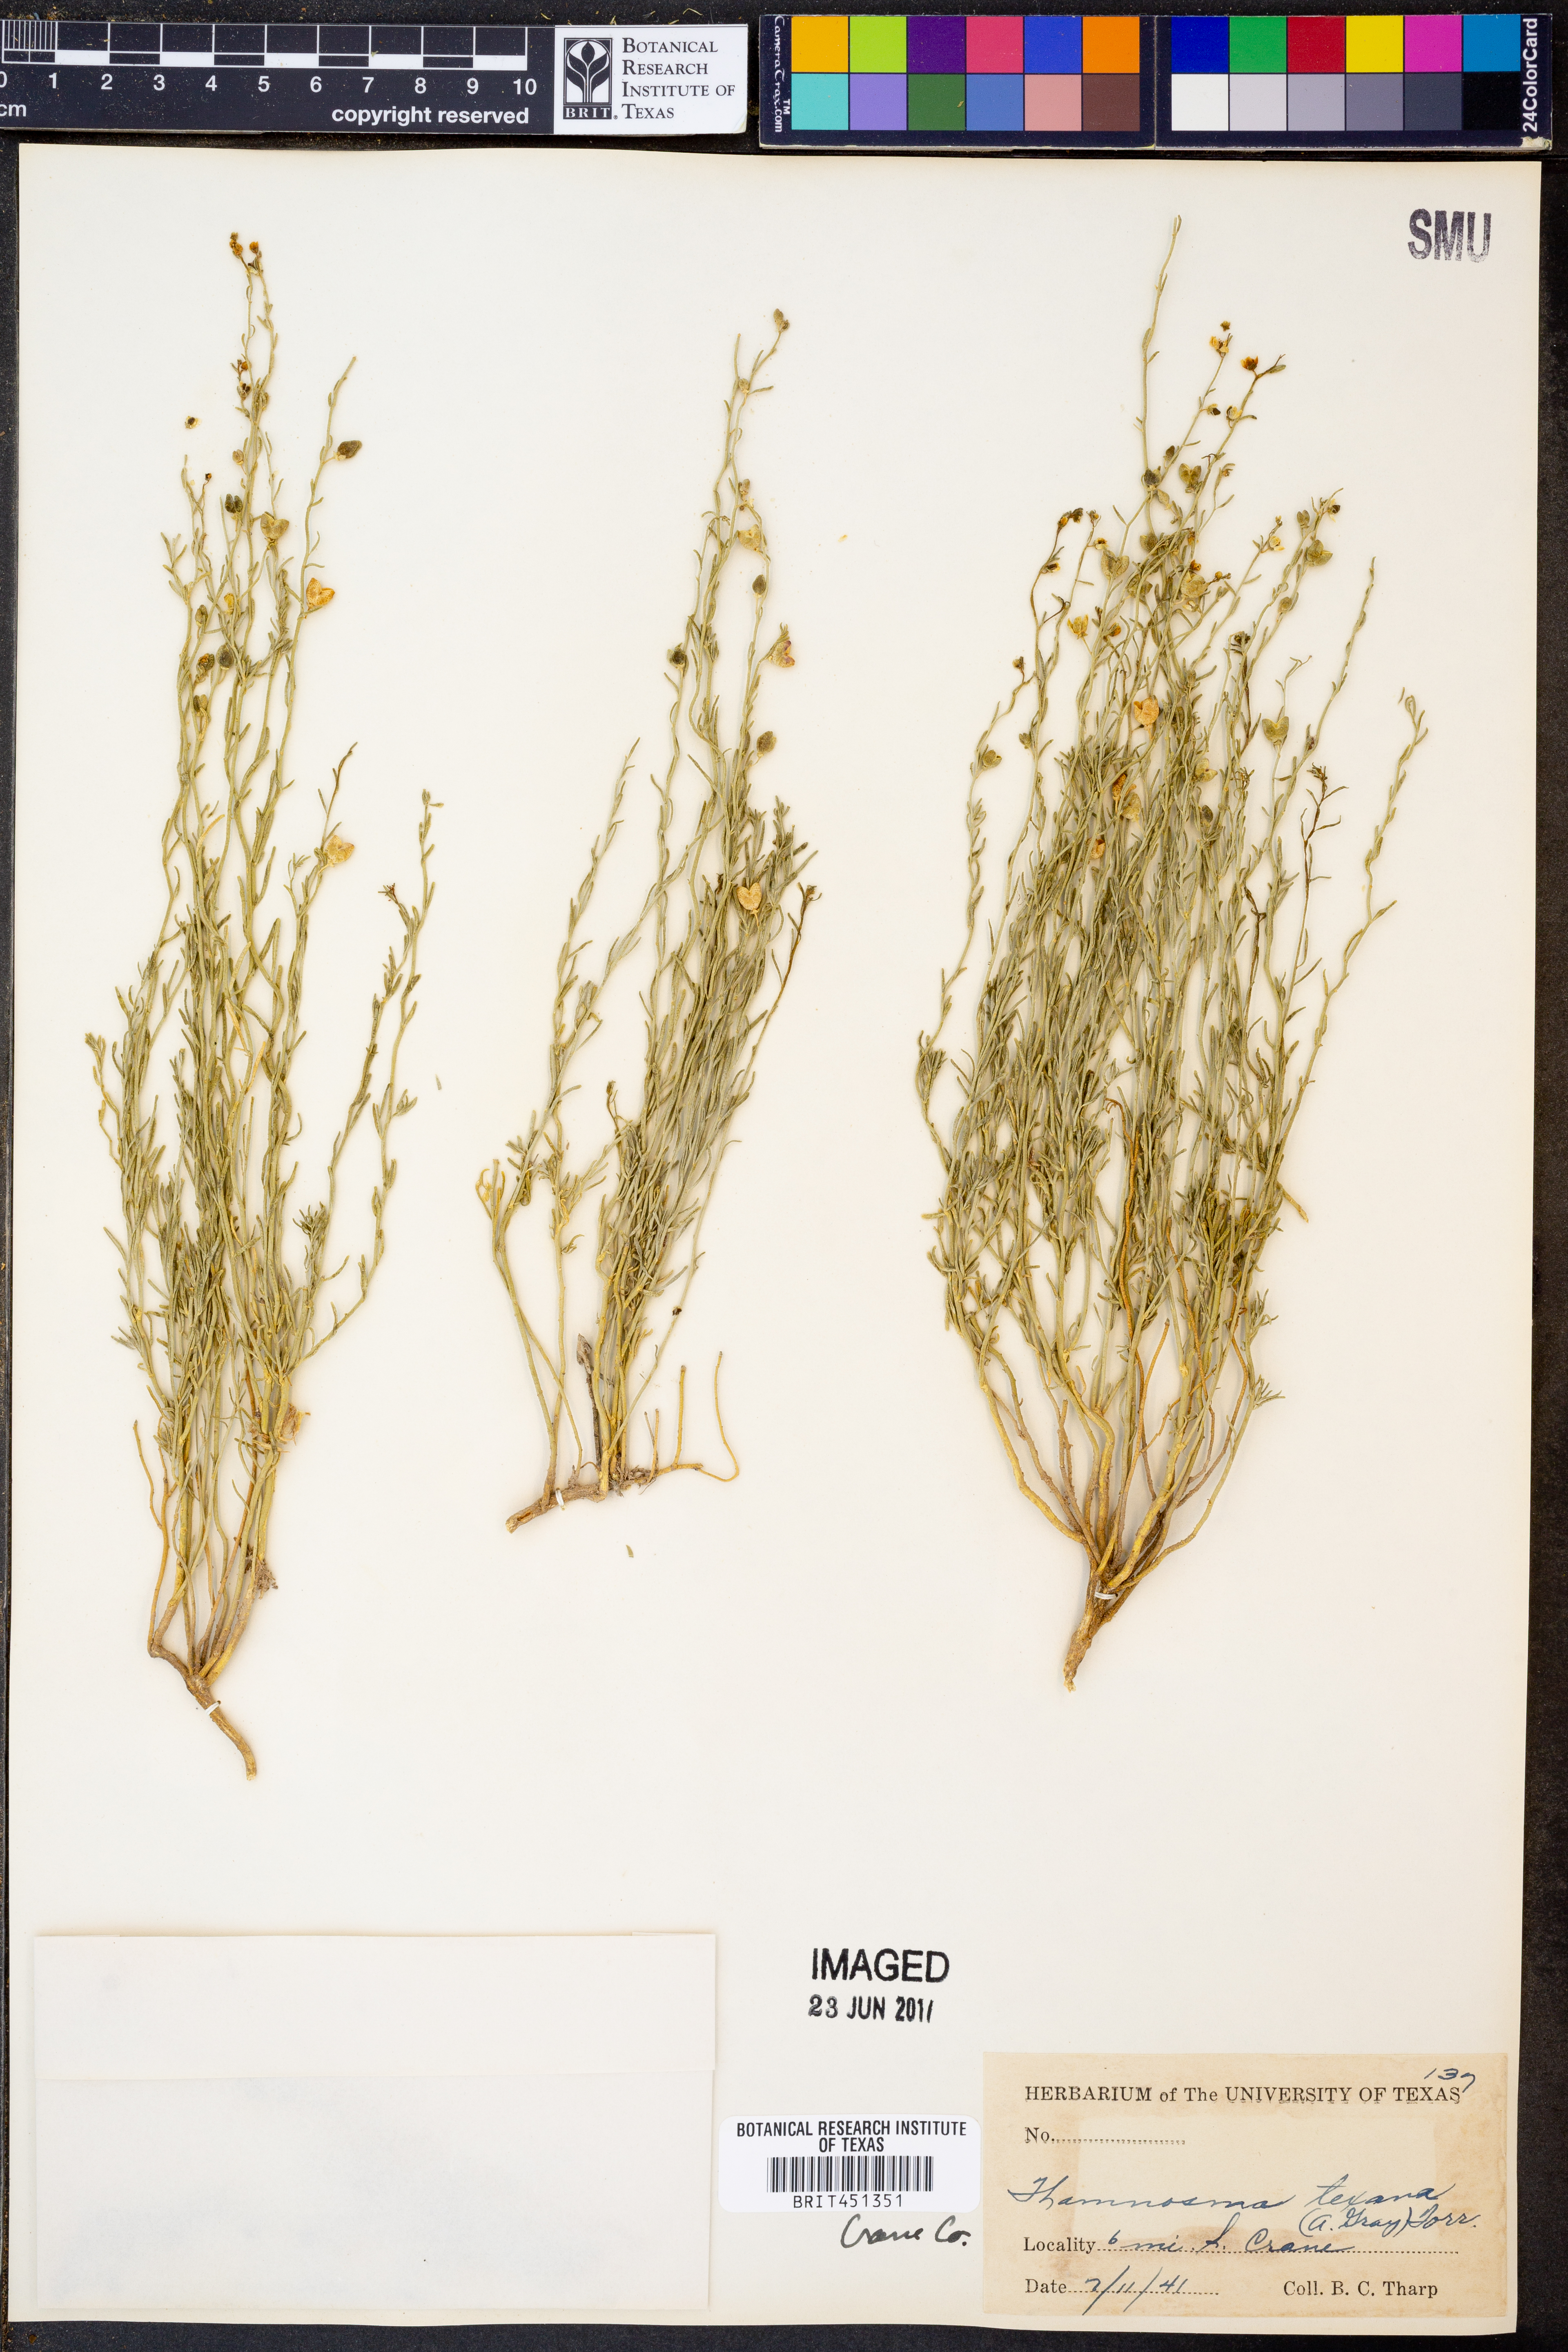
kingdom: Plantae
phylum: Tracheophyta
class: Magnoliopsida
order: Sapindales
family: Rutaceae
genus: Thamnosma
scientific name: Thamnosma texana
